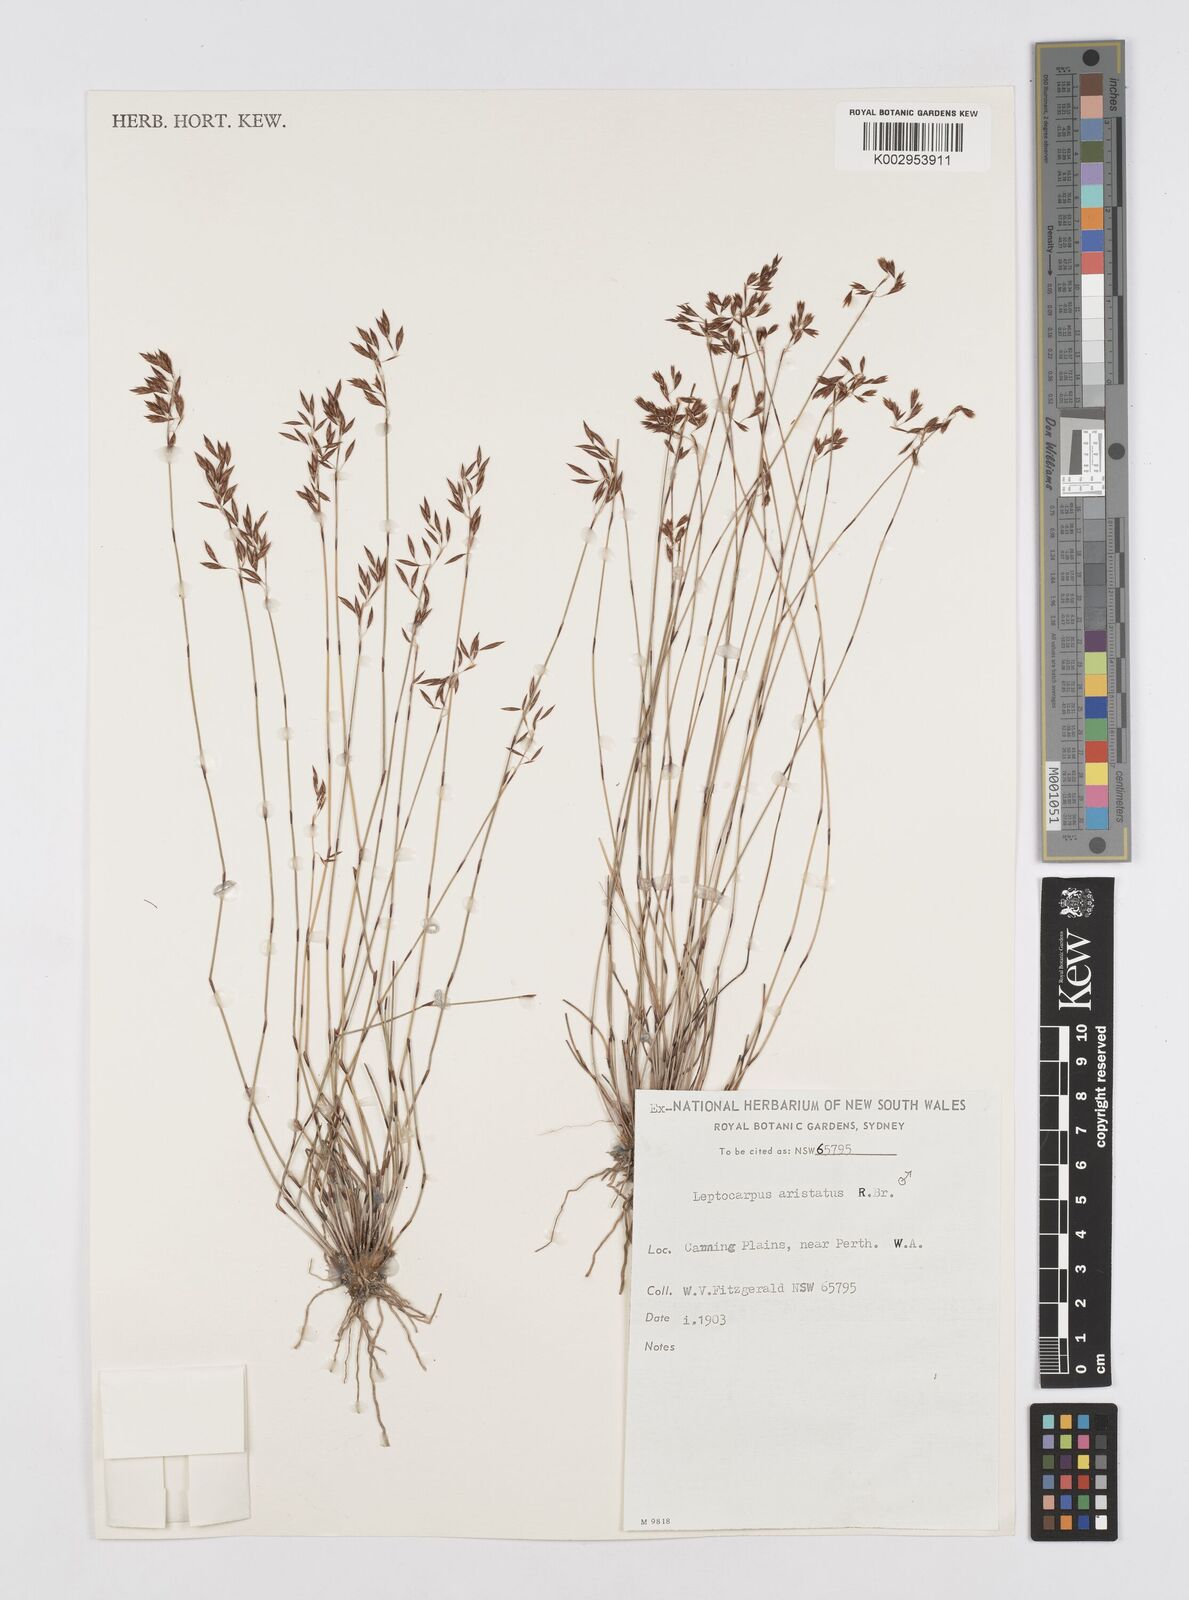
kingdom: Plantae
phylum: Tracheophyta
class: Liliopsida
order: Poales
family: Restionaceae
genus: Chaetanthus
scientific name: Chaetanthus aristatus
